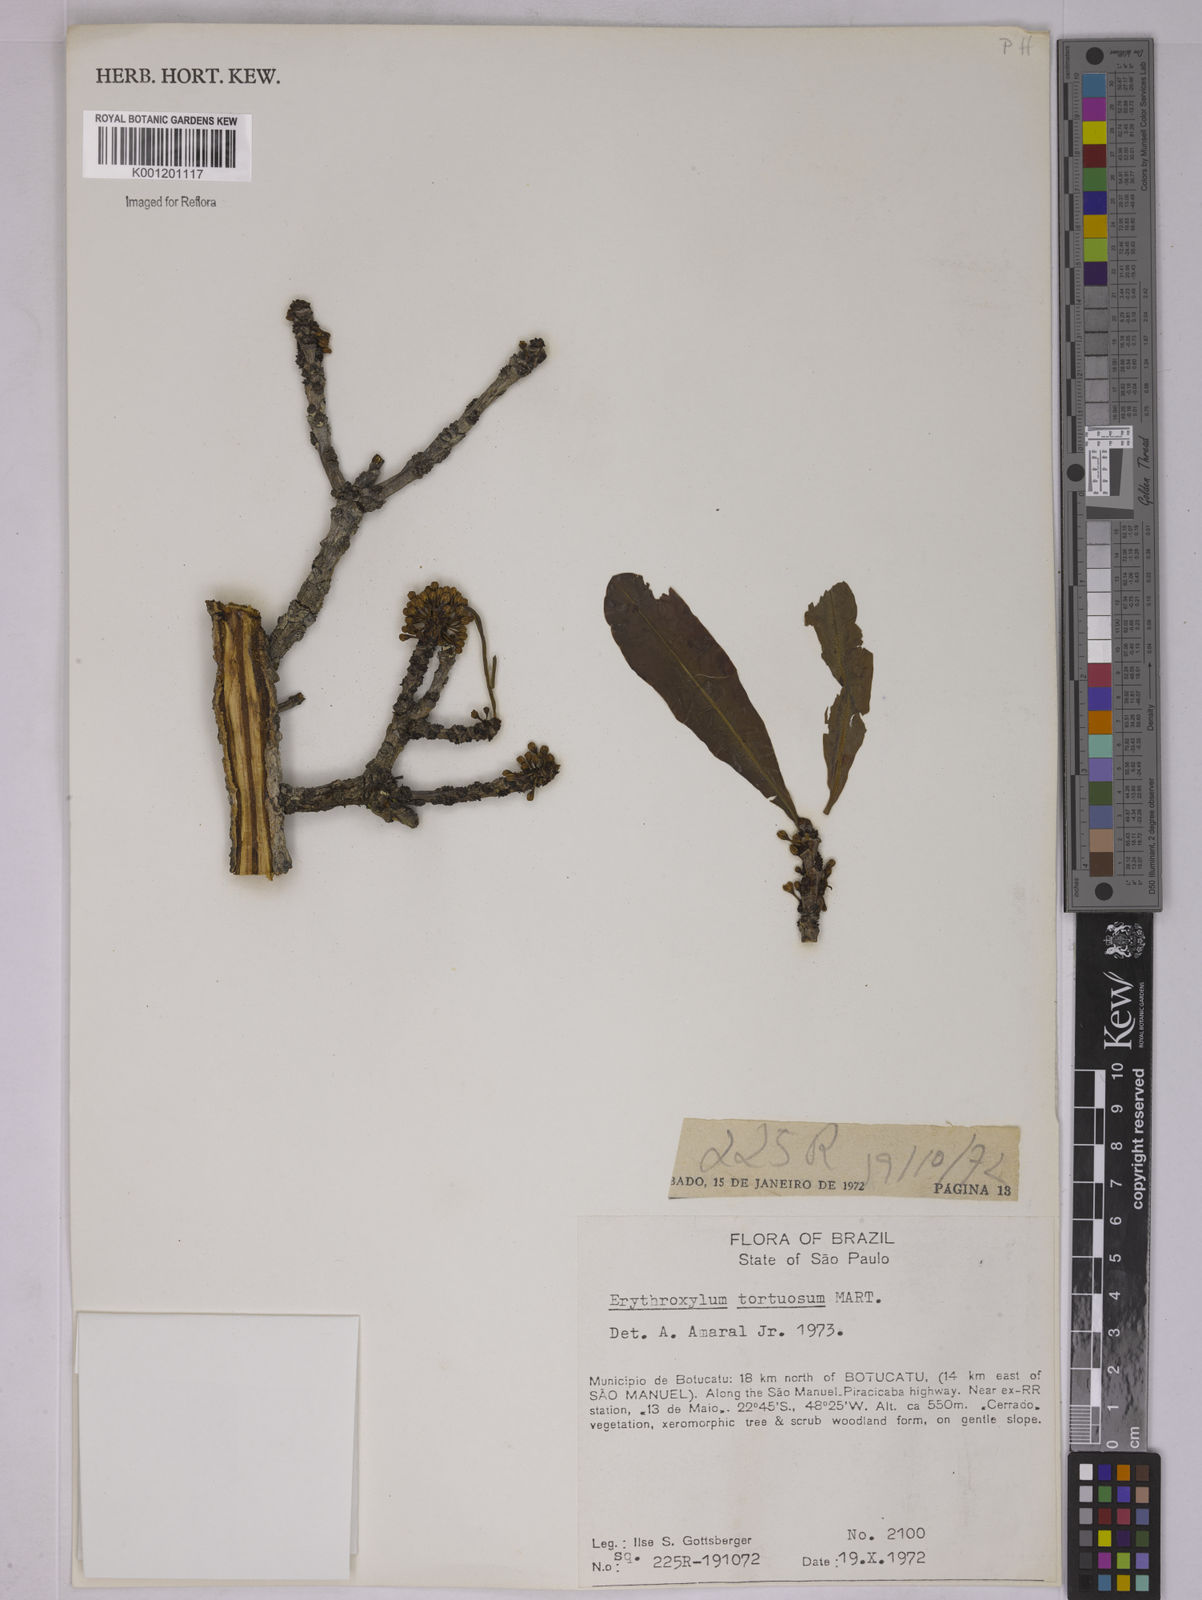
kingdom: Plantae
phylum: Tracheophyta
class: Magnoliopsida
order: Malpighiales
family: Erythroxylaceae
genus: Erythroxylum
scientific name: Erythroxylum tortuosum
